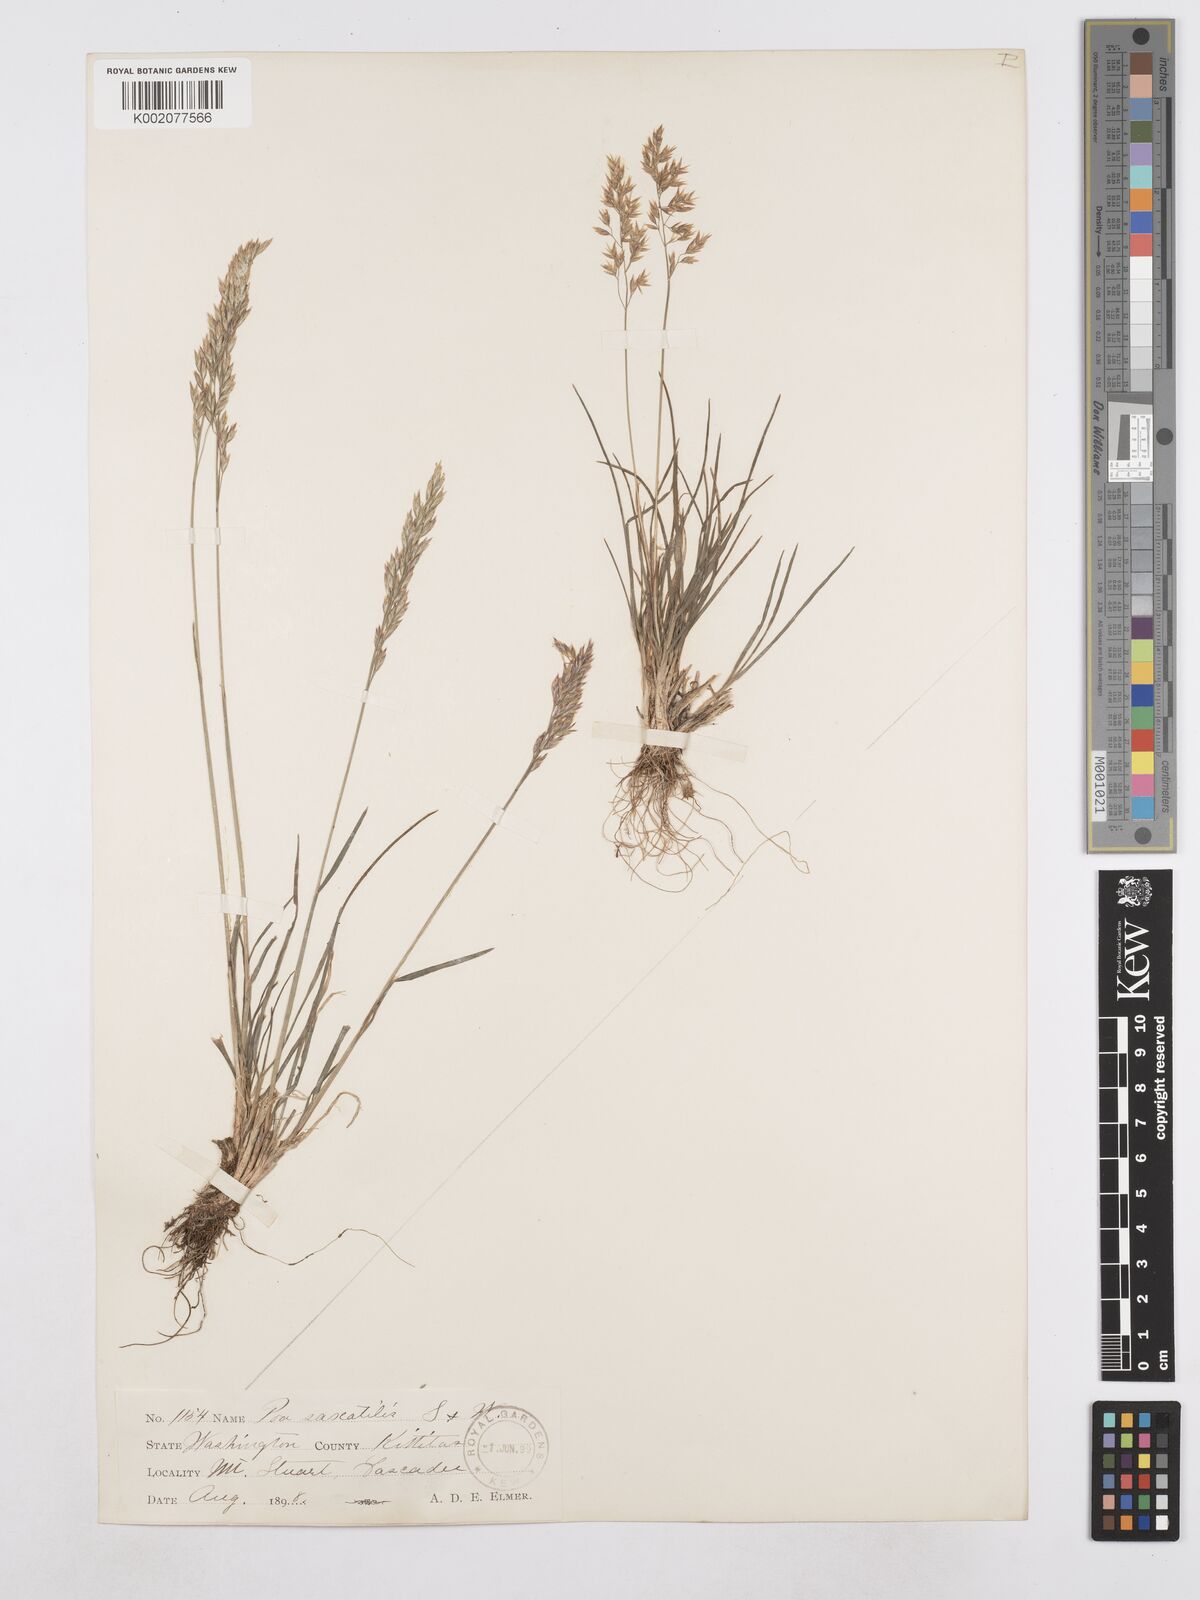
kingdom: Plantae
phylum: Tracheophyta
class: Liliopsida
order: Poales
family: Poaceae
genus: Poa
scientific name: Poa secunda
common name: Sandberg bluegrass
